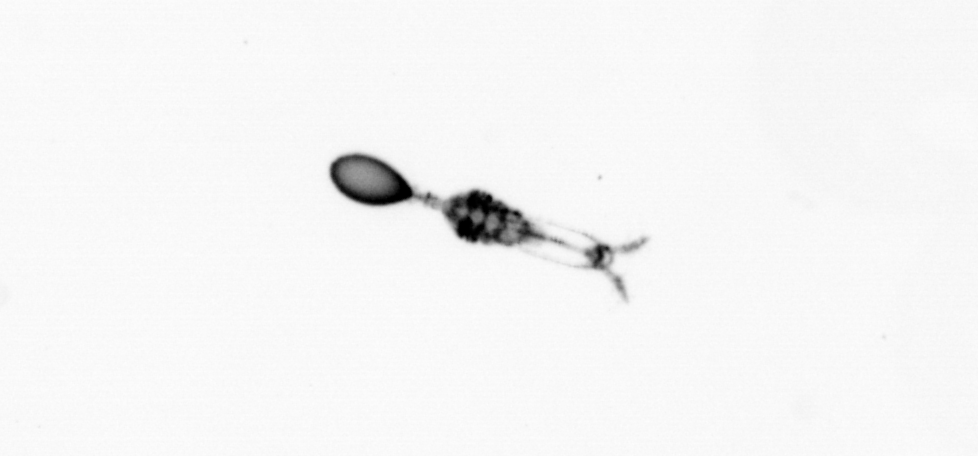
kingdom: Animalia
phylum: Arthropoda
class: Copepoda
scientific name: Copepoda
